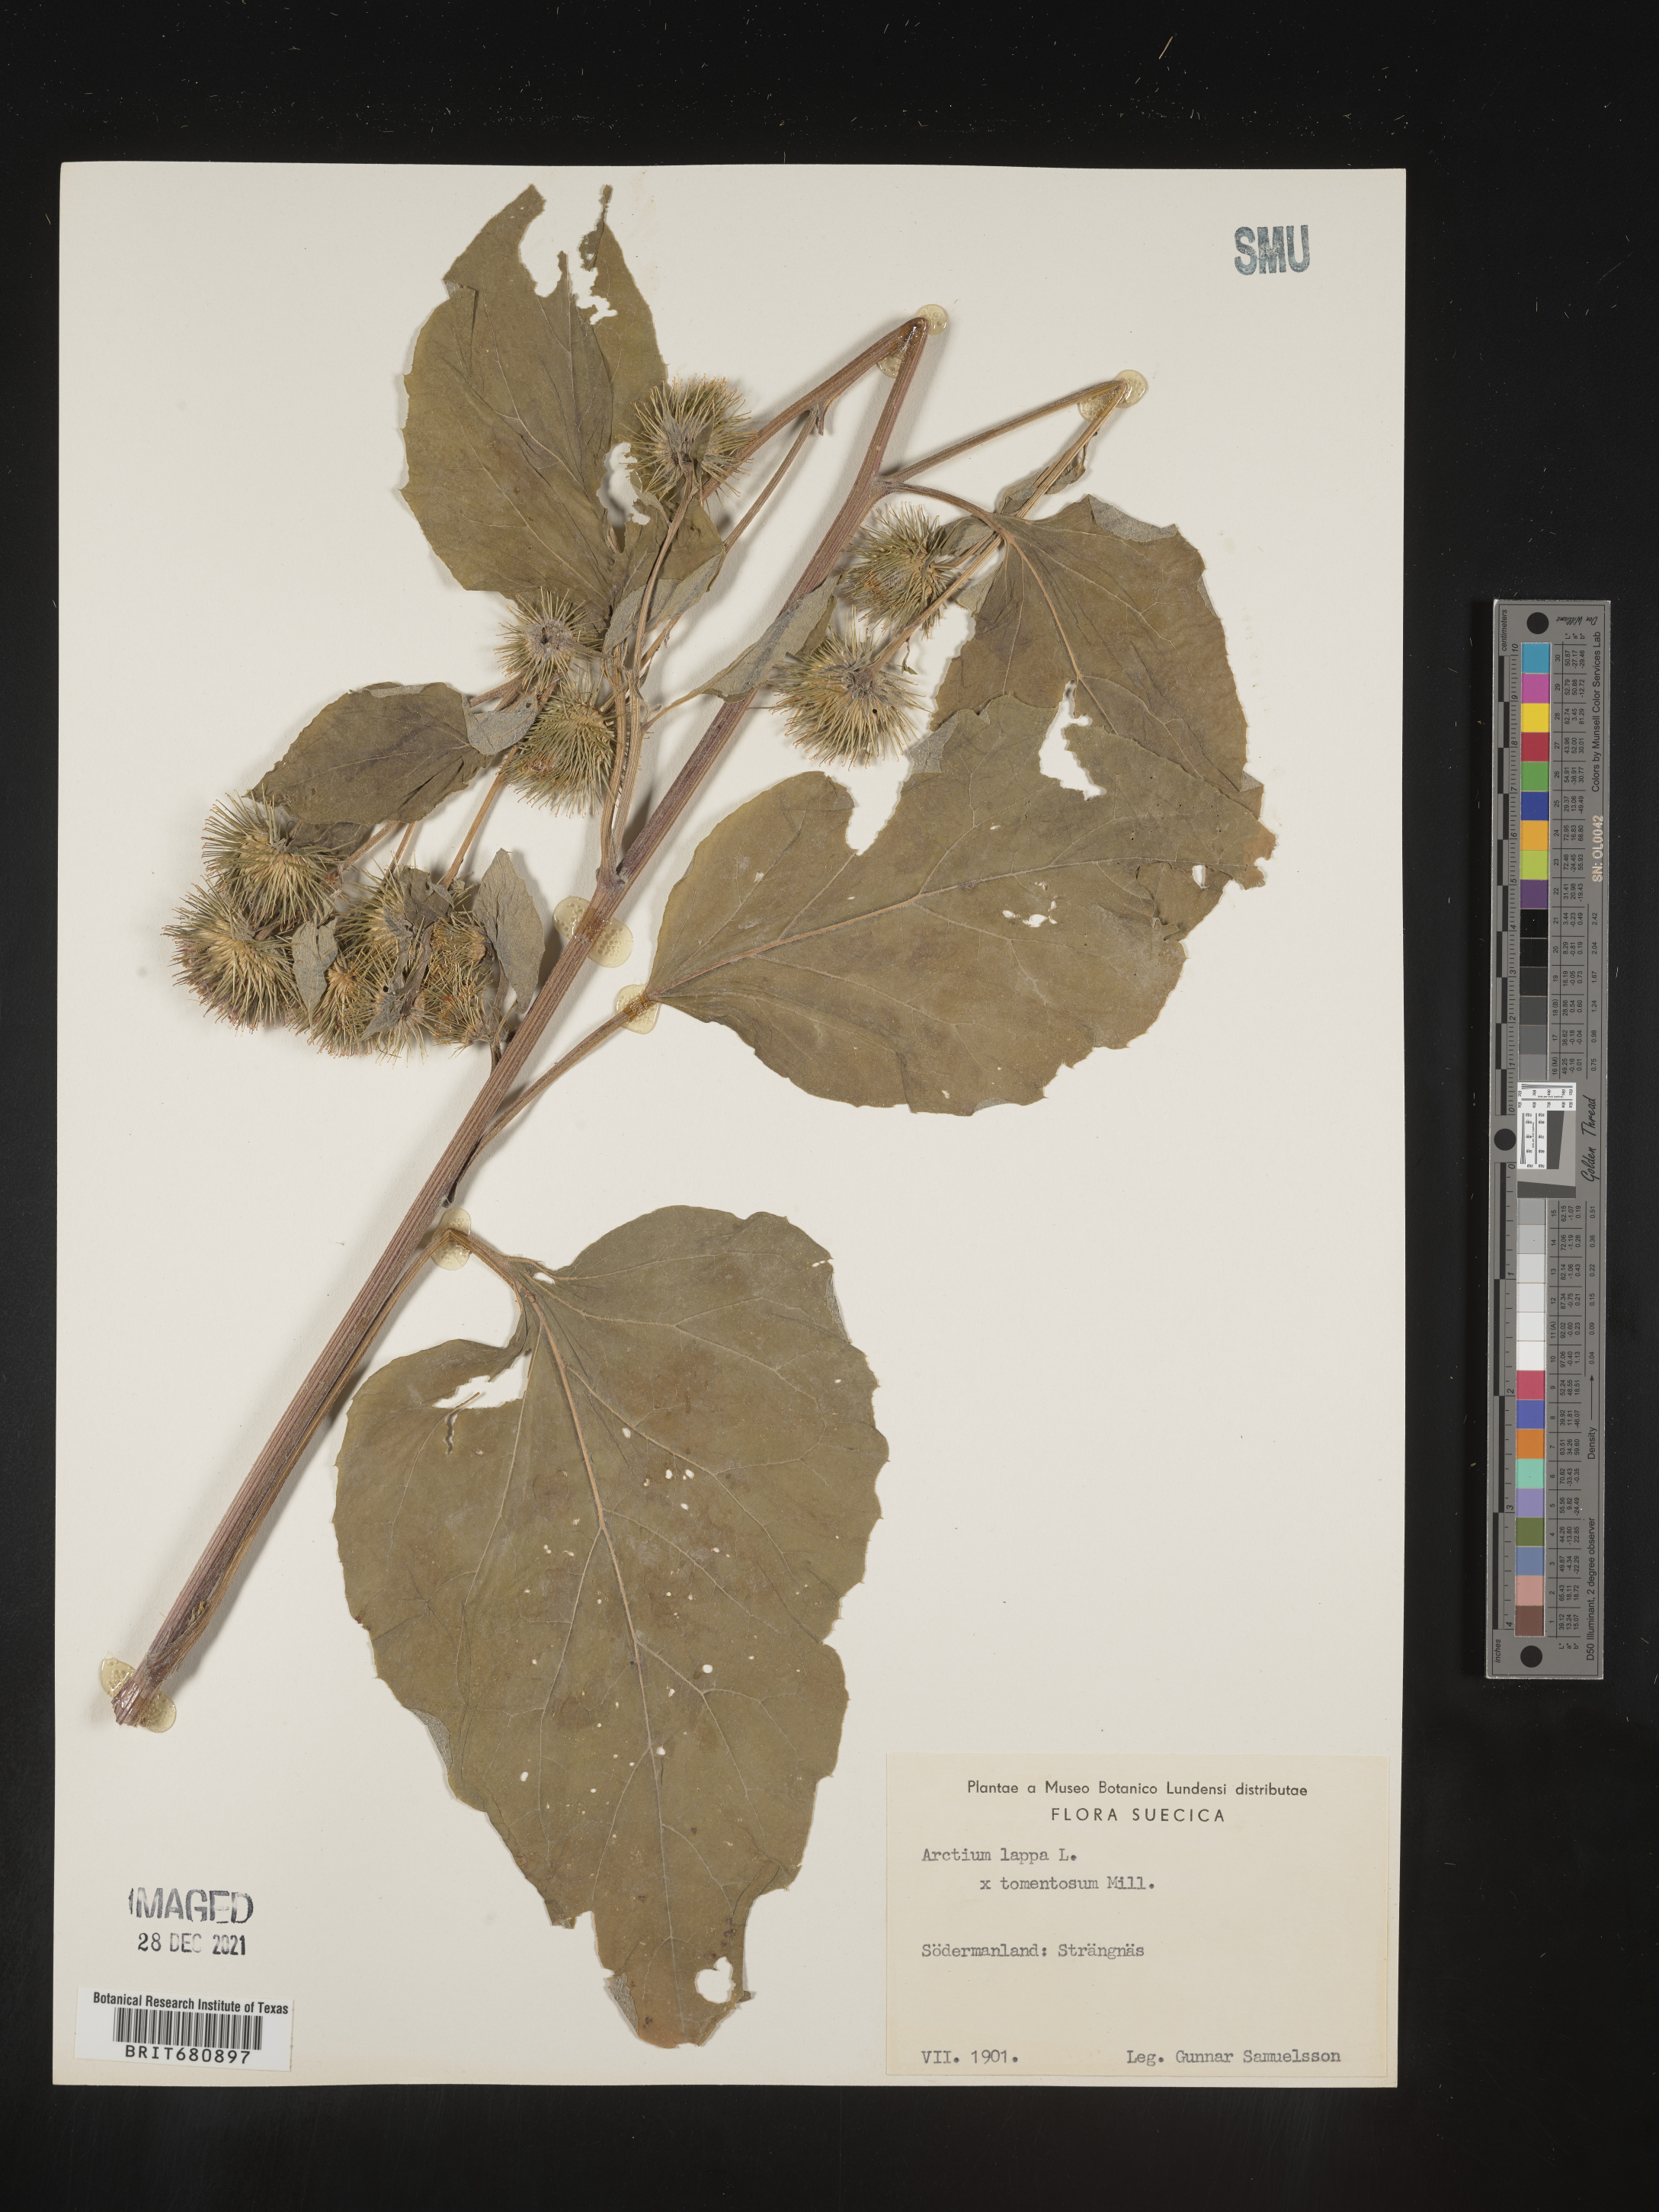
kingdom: Plantae
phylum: Tracheophyta
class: Magnoliopsida
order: Asterales
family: Asteraceae
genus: Arctium
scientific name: Arctium lappa
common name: Greater burdock
